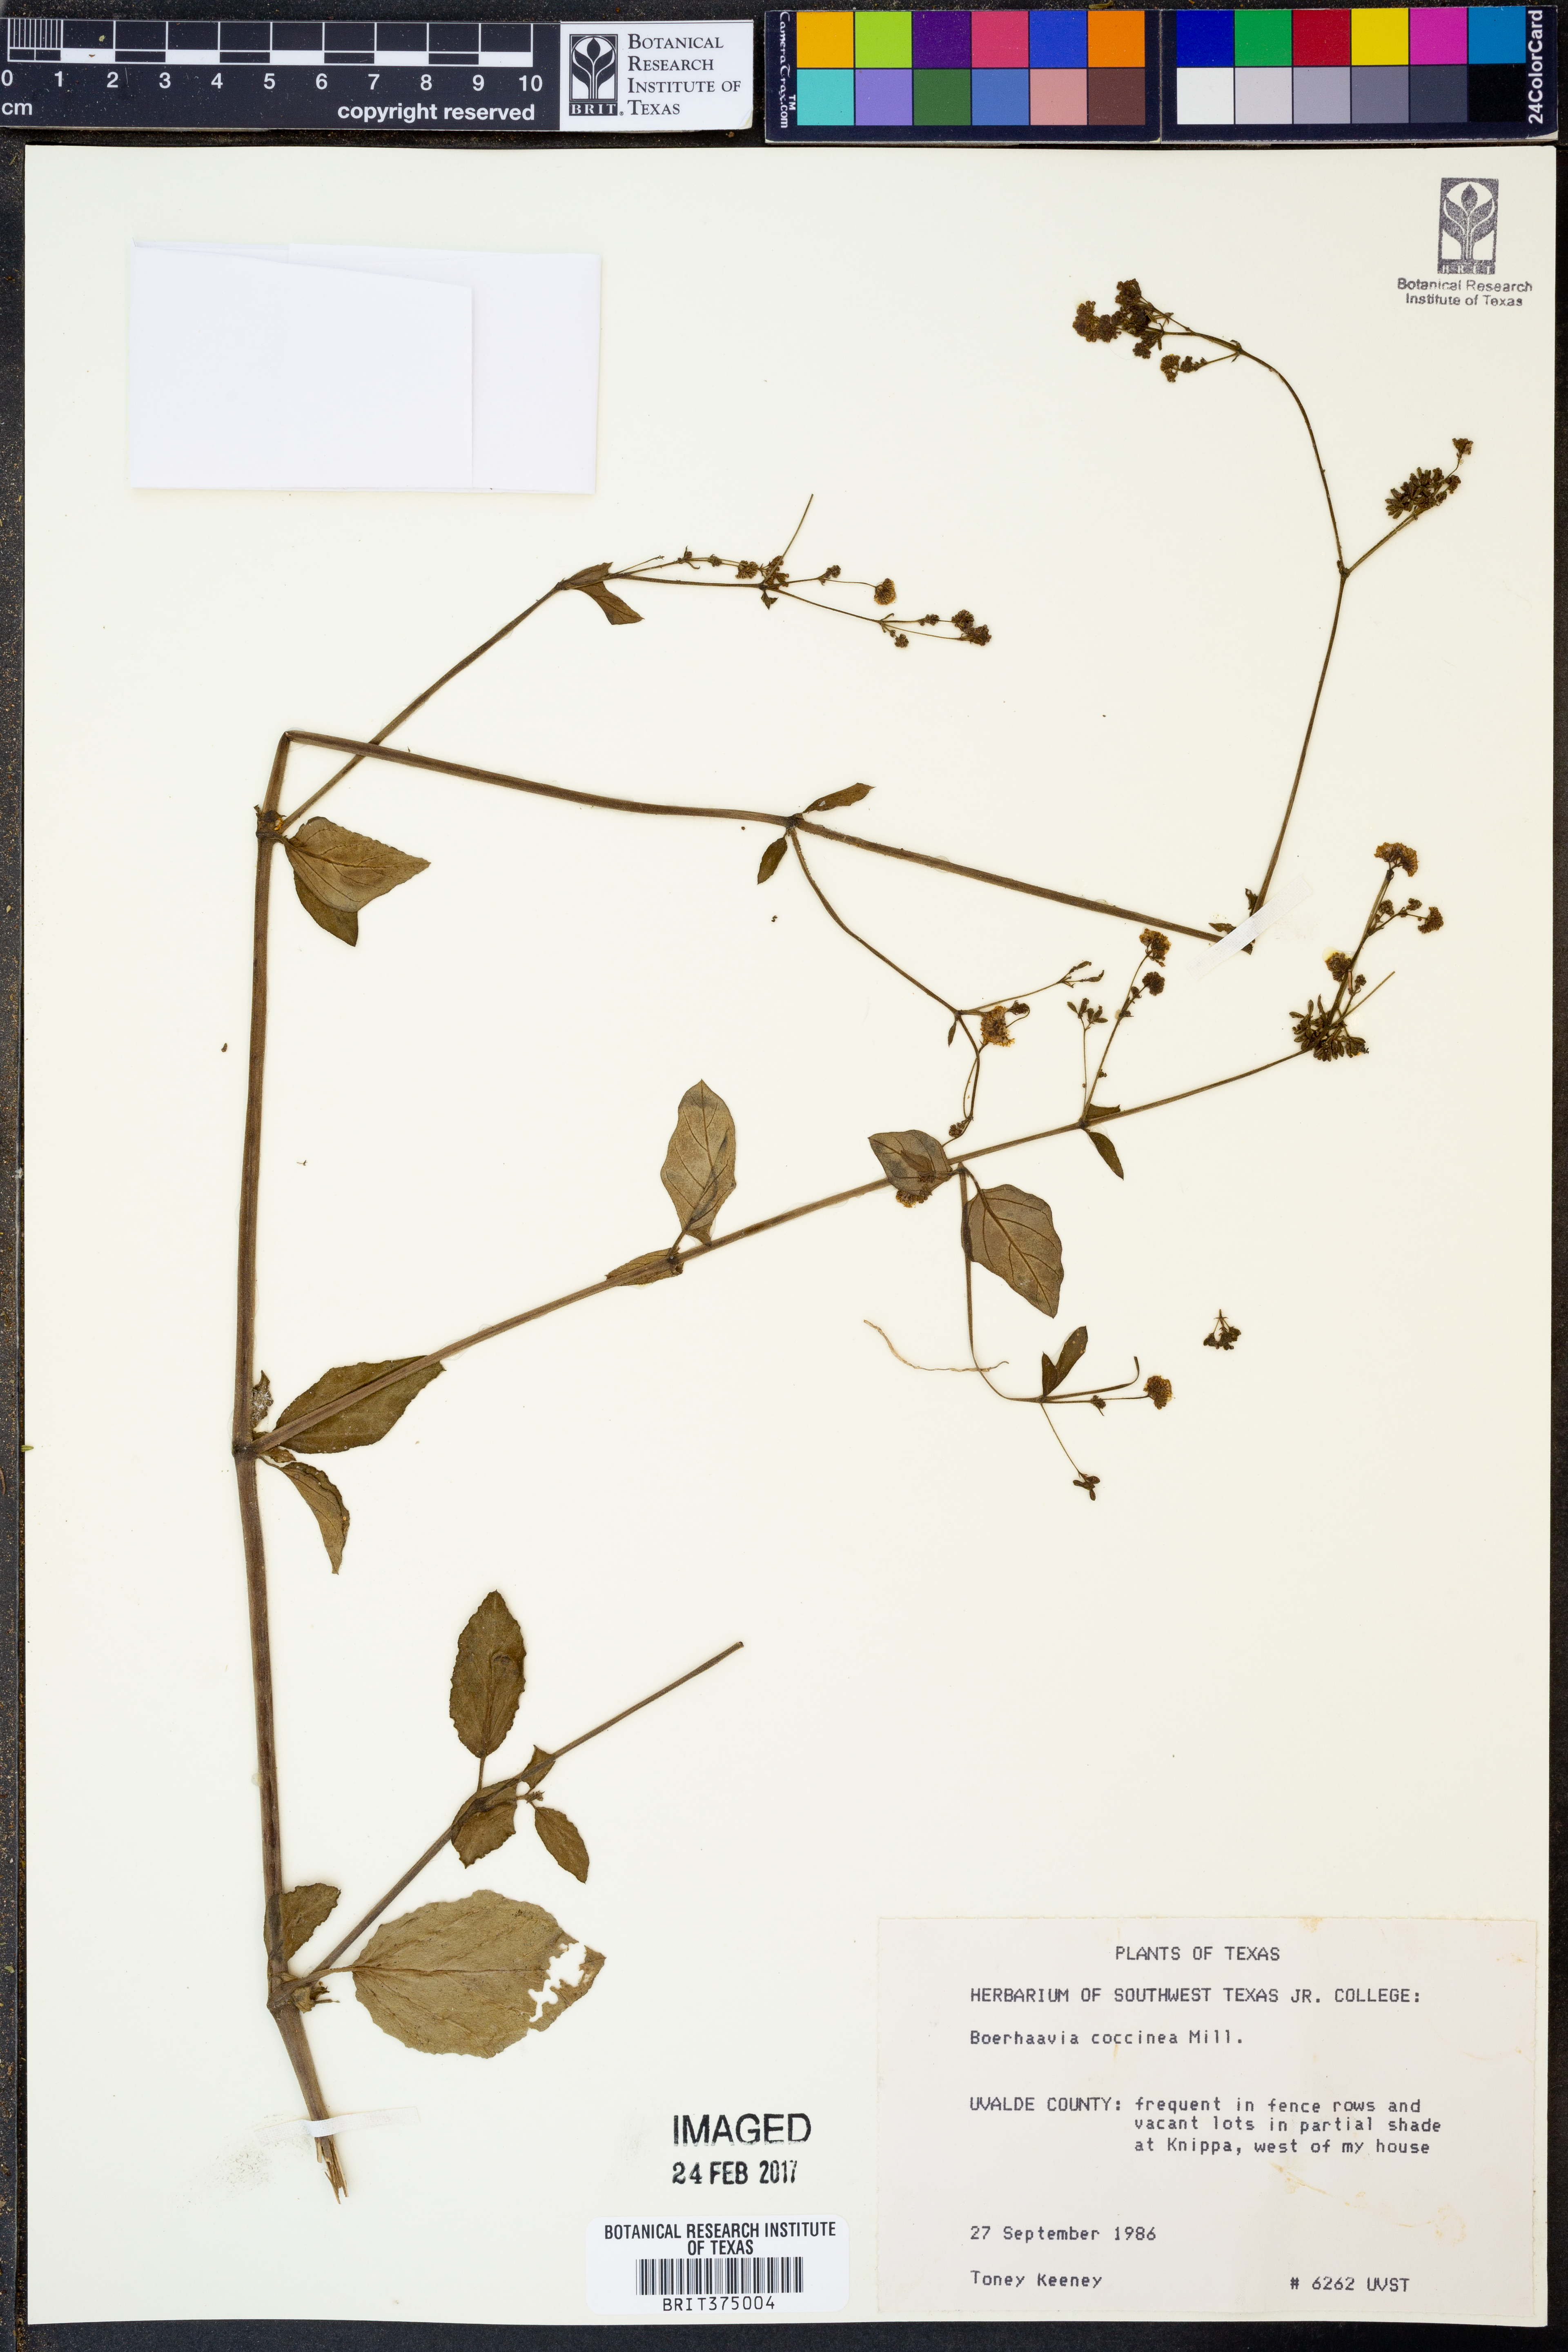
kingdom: Plantae
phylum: Tracheophyta
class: Magnoliopsida
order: Caryophyllales
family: Nyctaginaceae
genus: Boerhavia
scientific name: Boerhavia coccinea
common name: Scarlet spiderling
